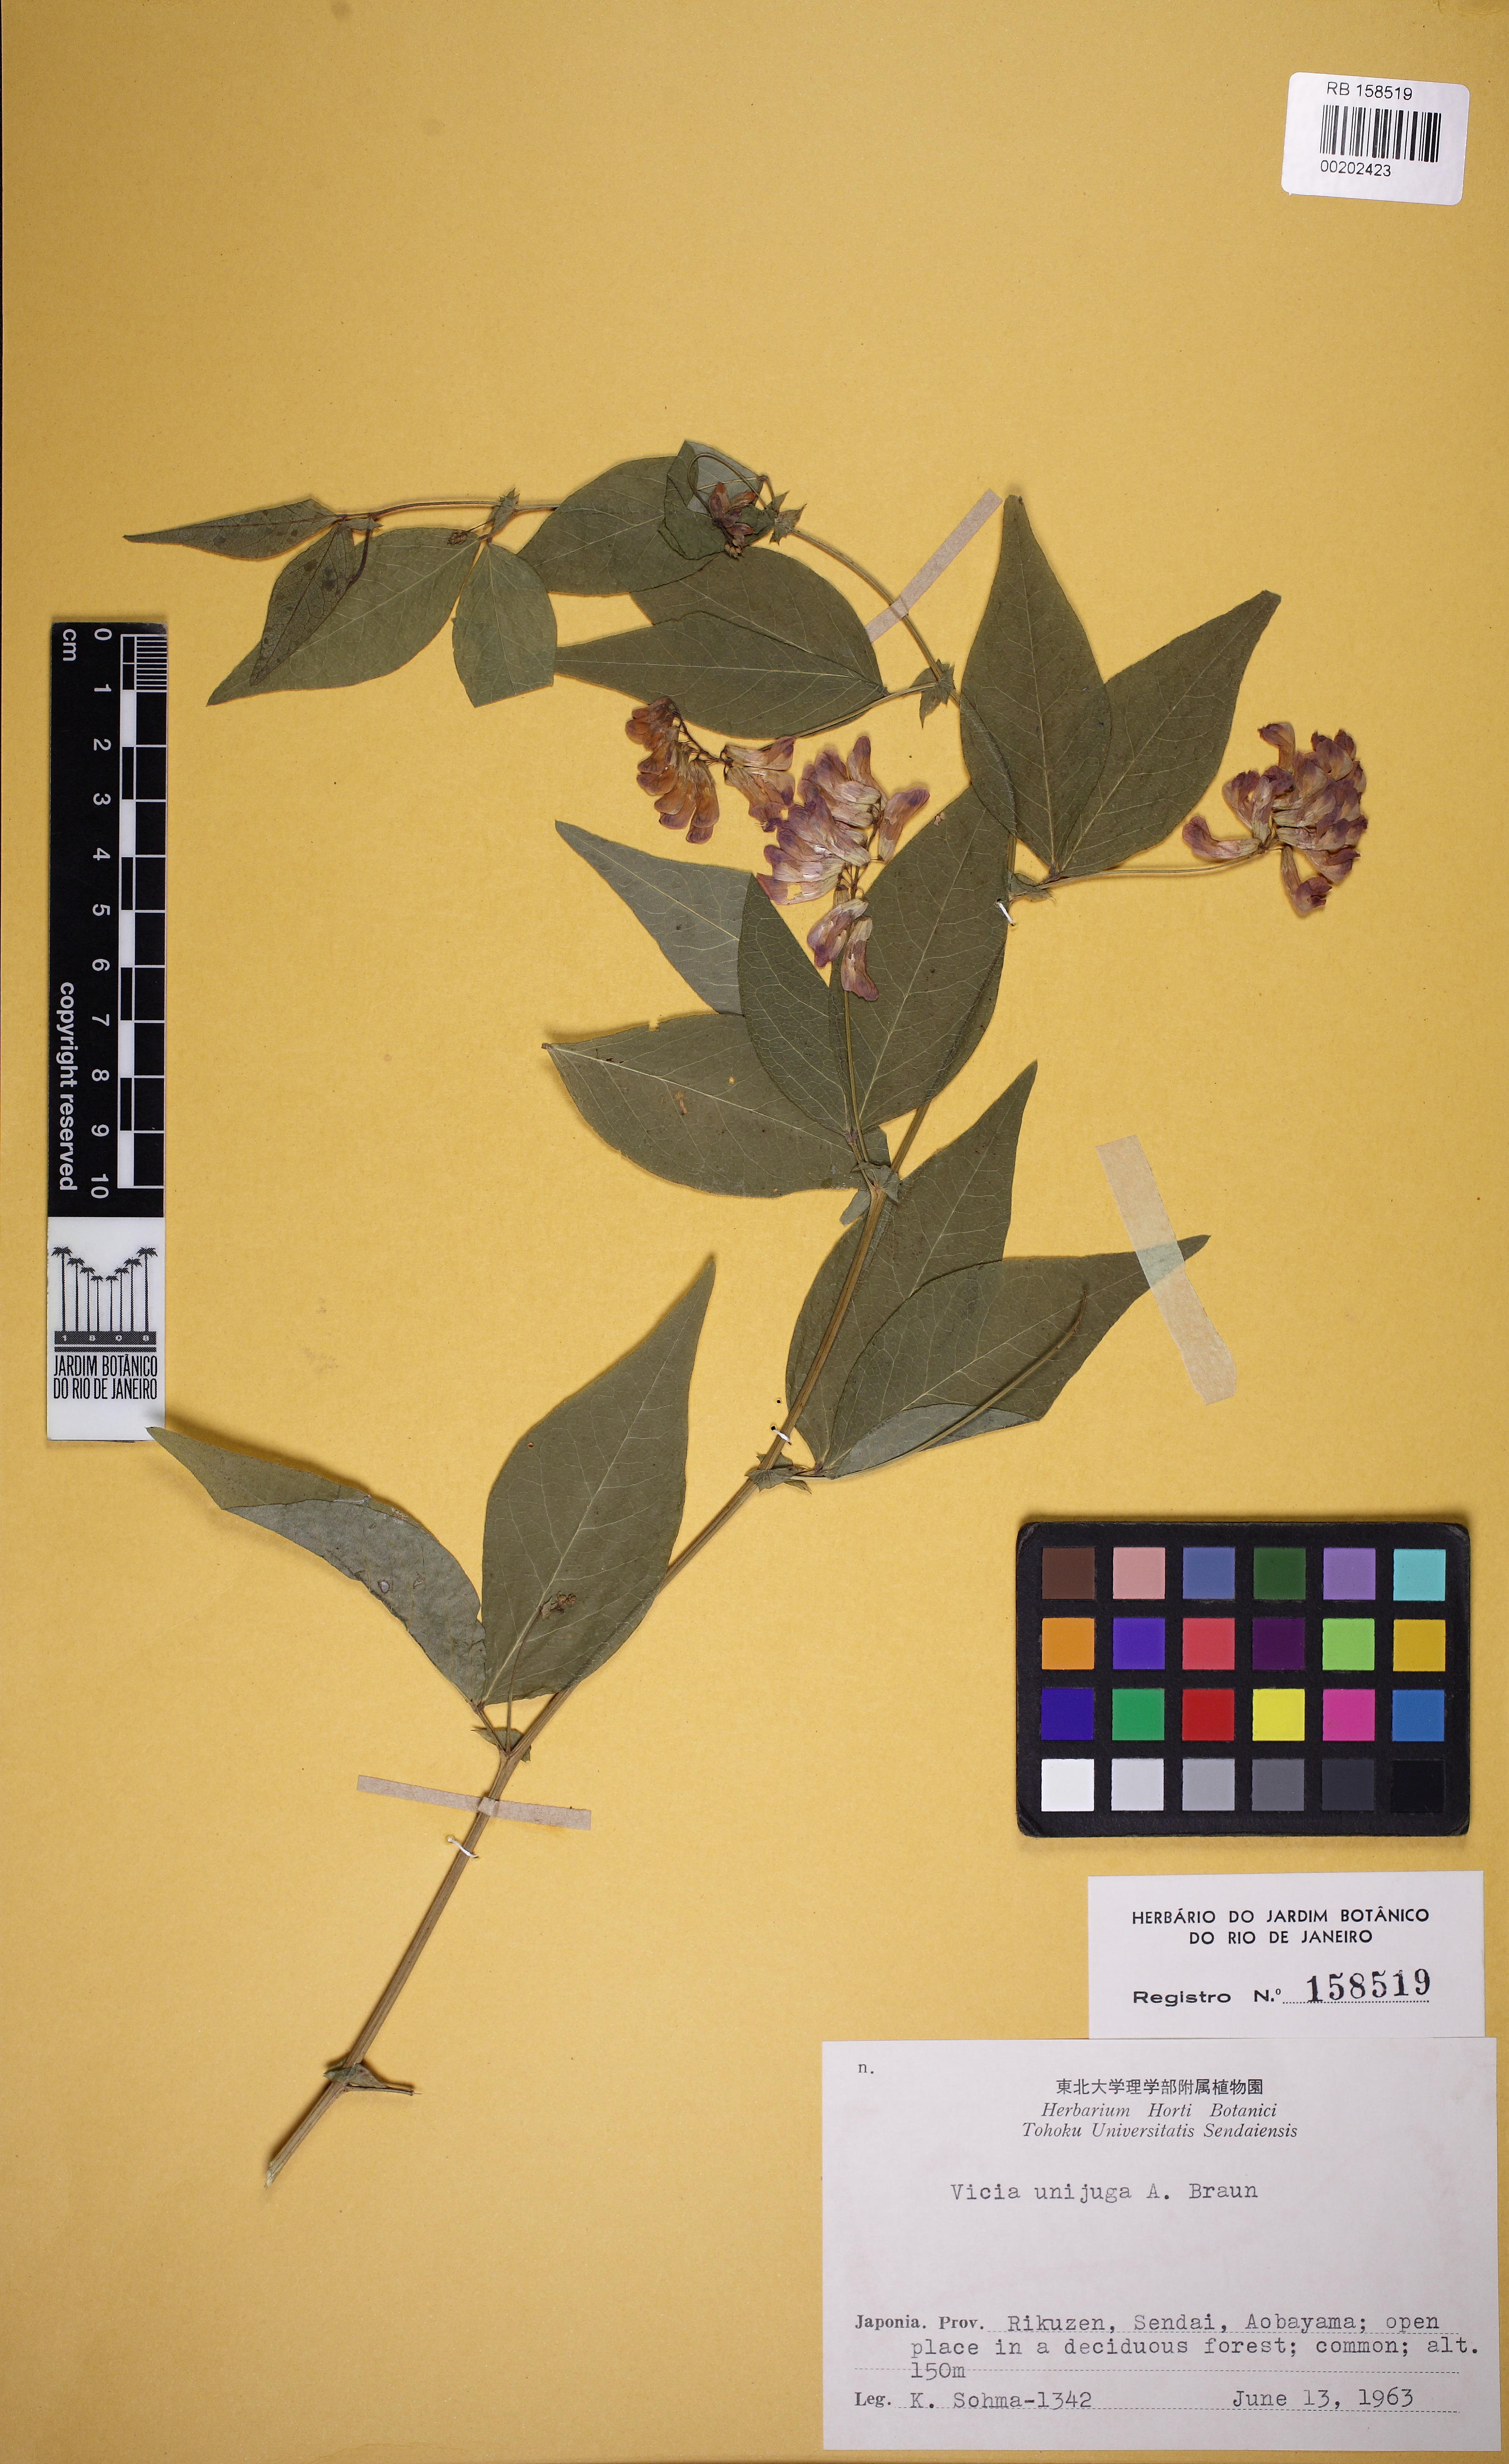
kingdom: Plantae
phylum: Tracheophyta
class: Magnoliopsida
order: Fabales
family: Fabaceae
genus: Vicia
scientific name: Vicia unijuga
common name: Two-leaf vetch
